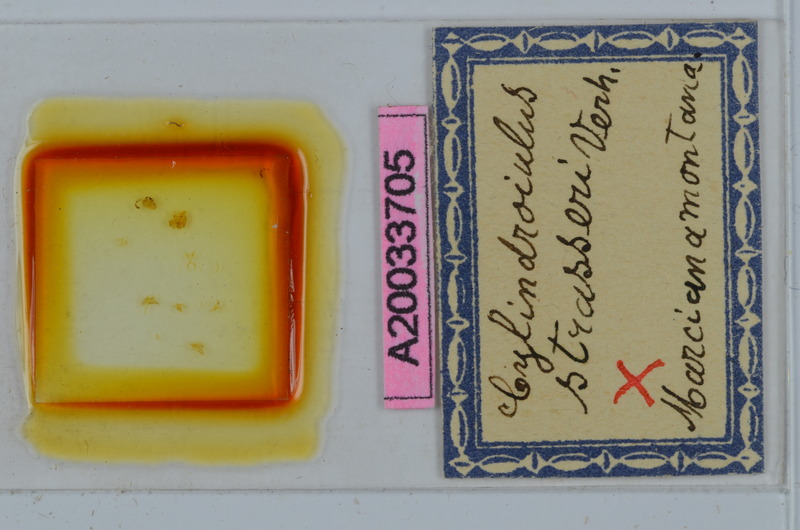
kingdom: Animalia
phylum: Arthropoda
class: Diplopoda
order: Julida
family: Julidae
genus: Cylindroiulus
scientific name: Cylindroiulus strasseri
